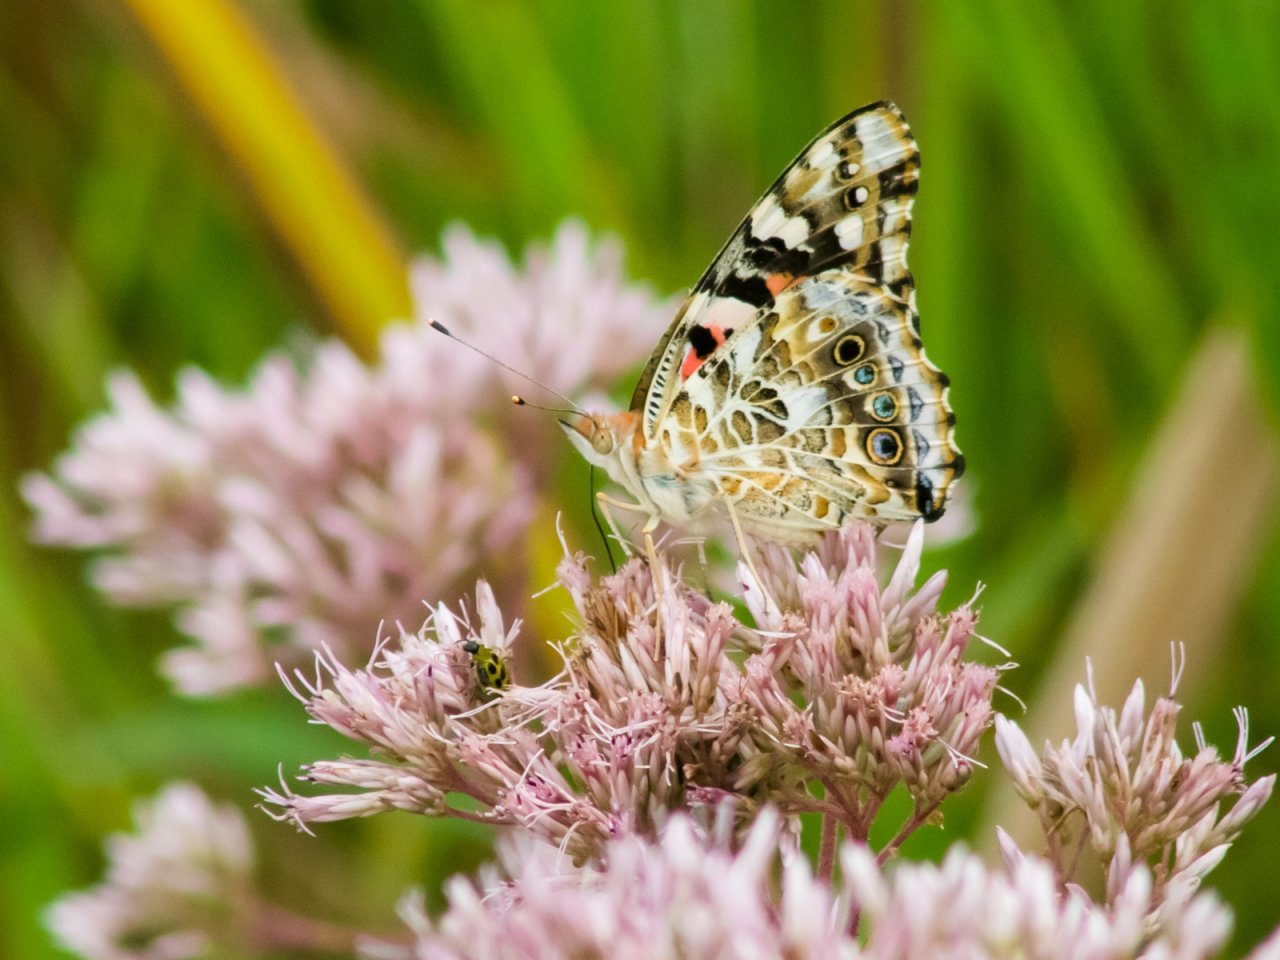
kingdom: Animalia
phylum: Arthropoda
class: Insecta
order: Lepidoptera
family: Nymphalidae
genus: Vanessa
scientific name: Vanessa cardui
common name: Painted Lady
